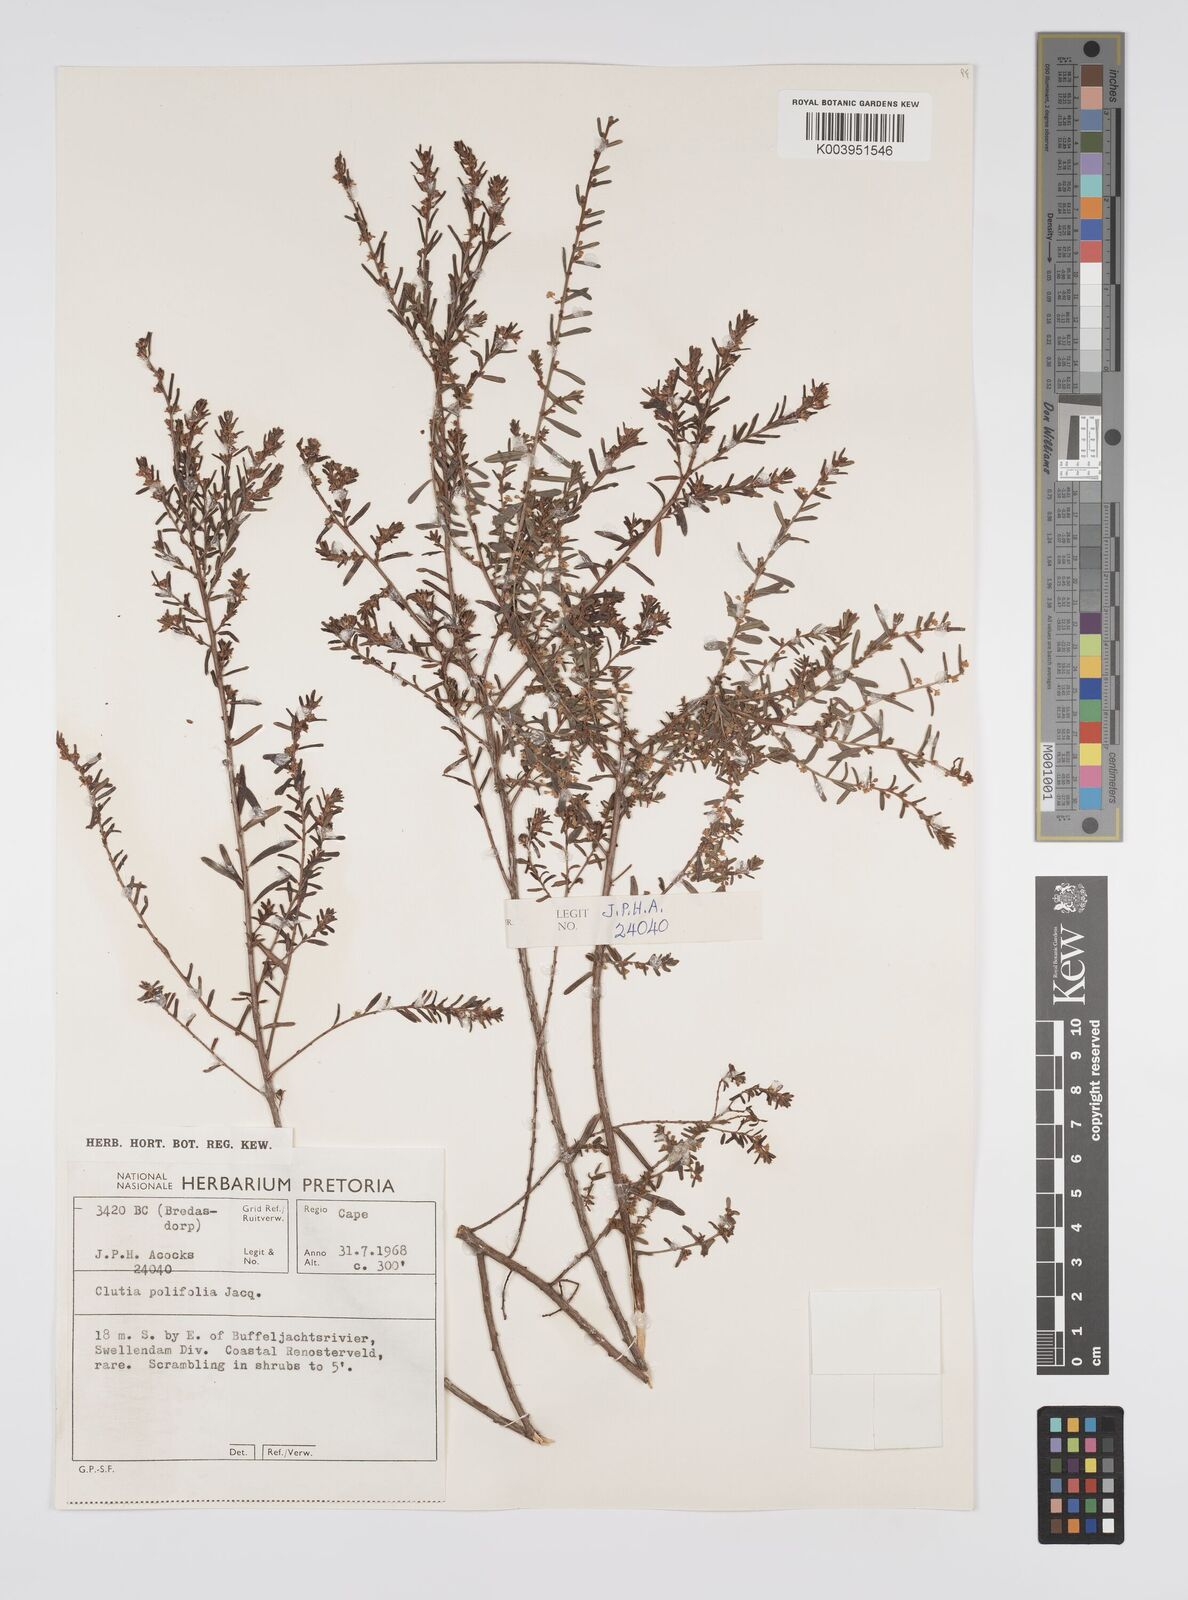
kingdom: Plantae
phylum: Tracheophyta
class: Magnoliopsida
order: Malpighiales
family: Peraceae
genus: Clutia
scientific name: Clutia
